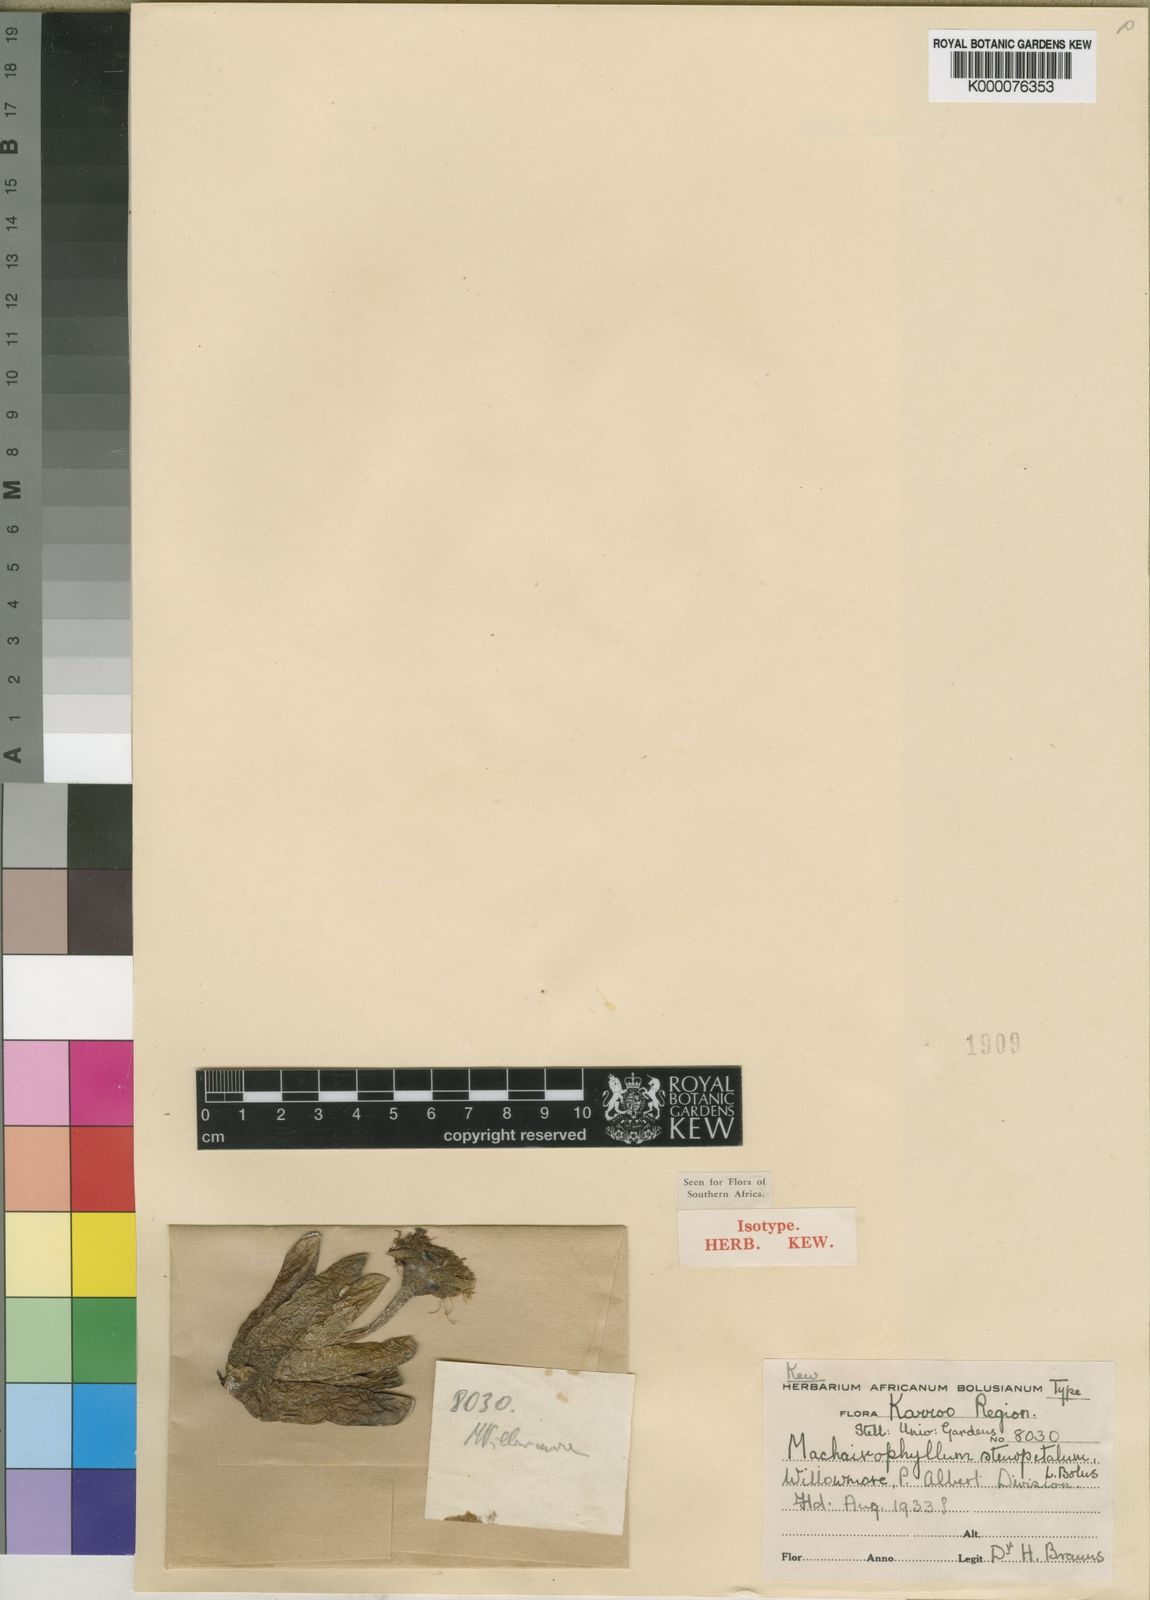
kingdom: Plantae
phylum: Tracheophyta
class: Magnoliopsida
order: Caryophyllales
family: Aizoaceae
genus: Machairophyllum
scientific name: Machairophyllum bijlii
